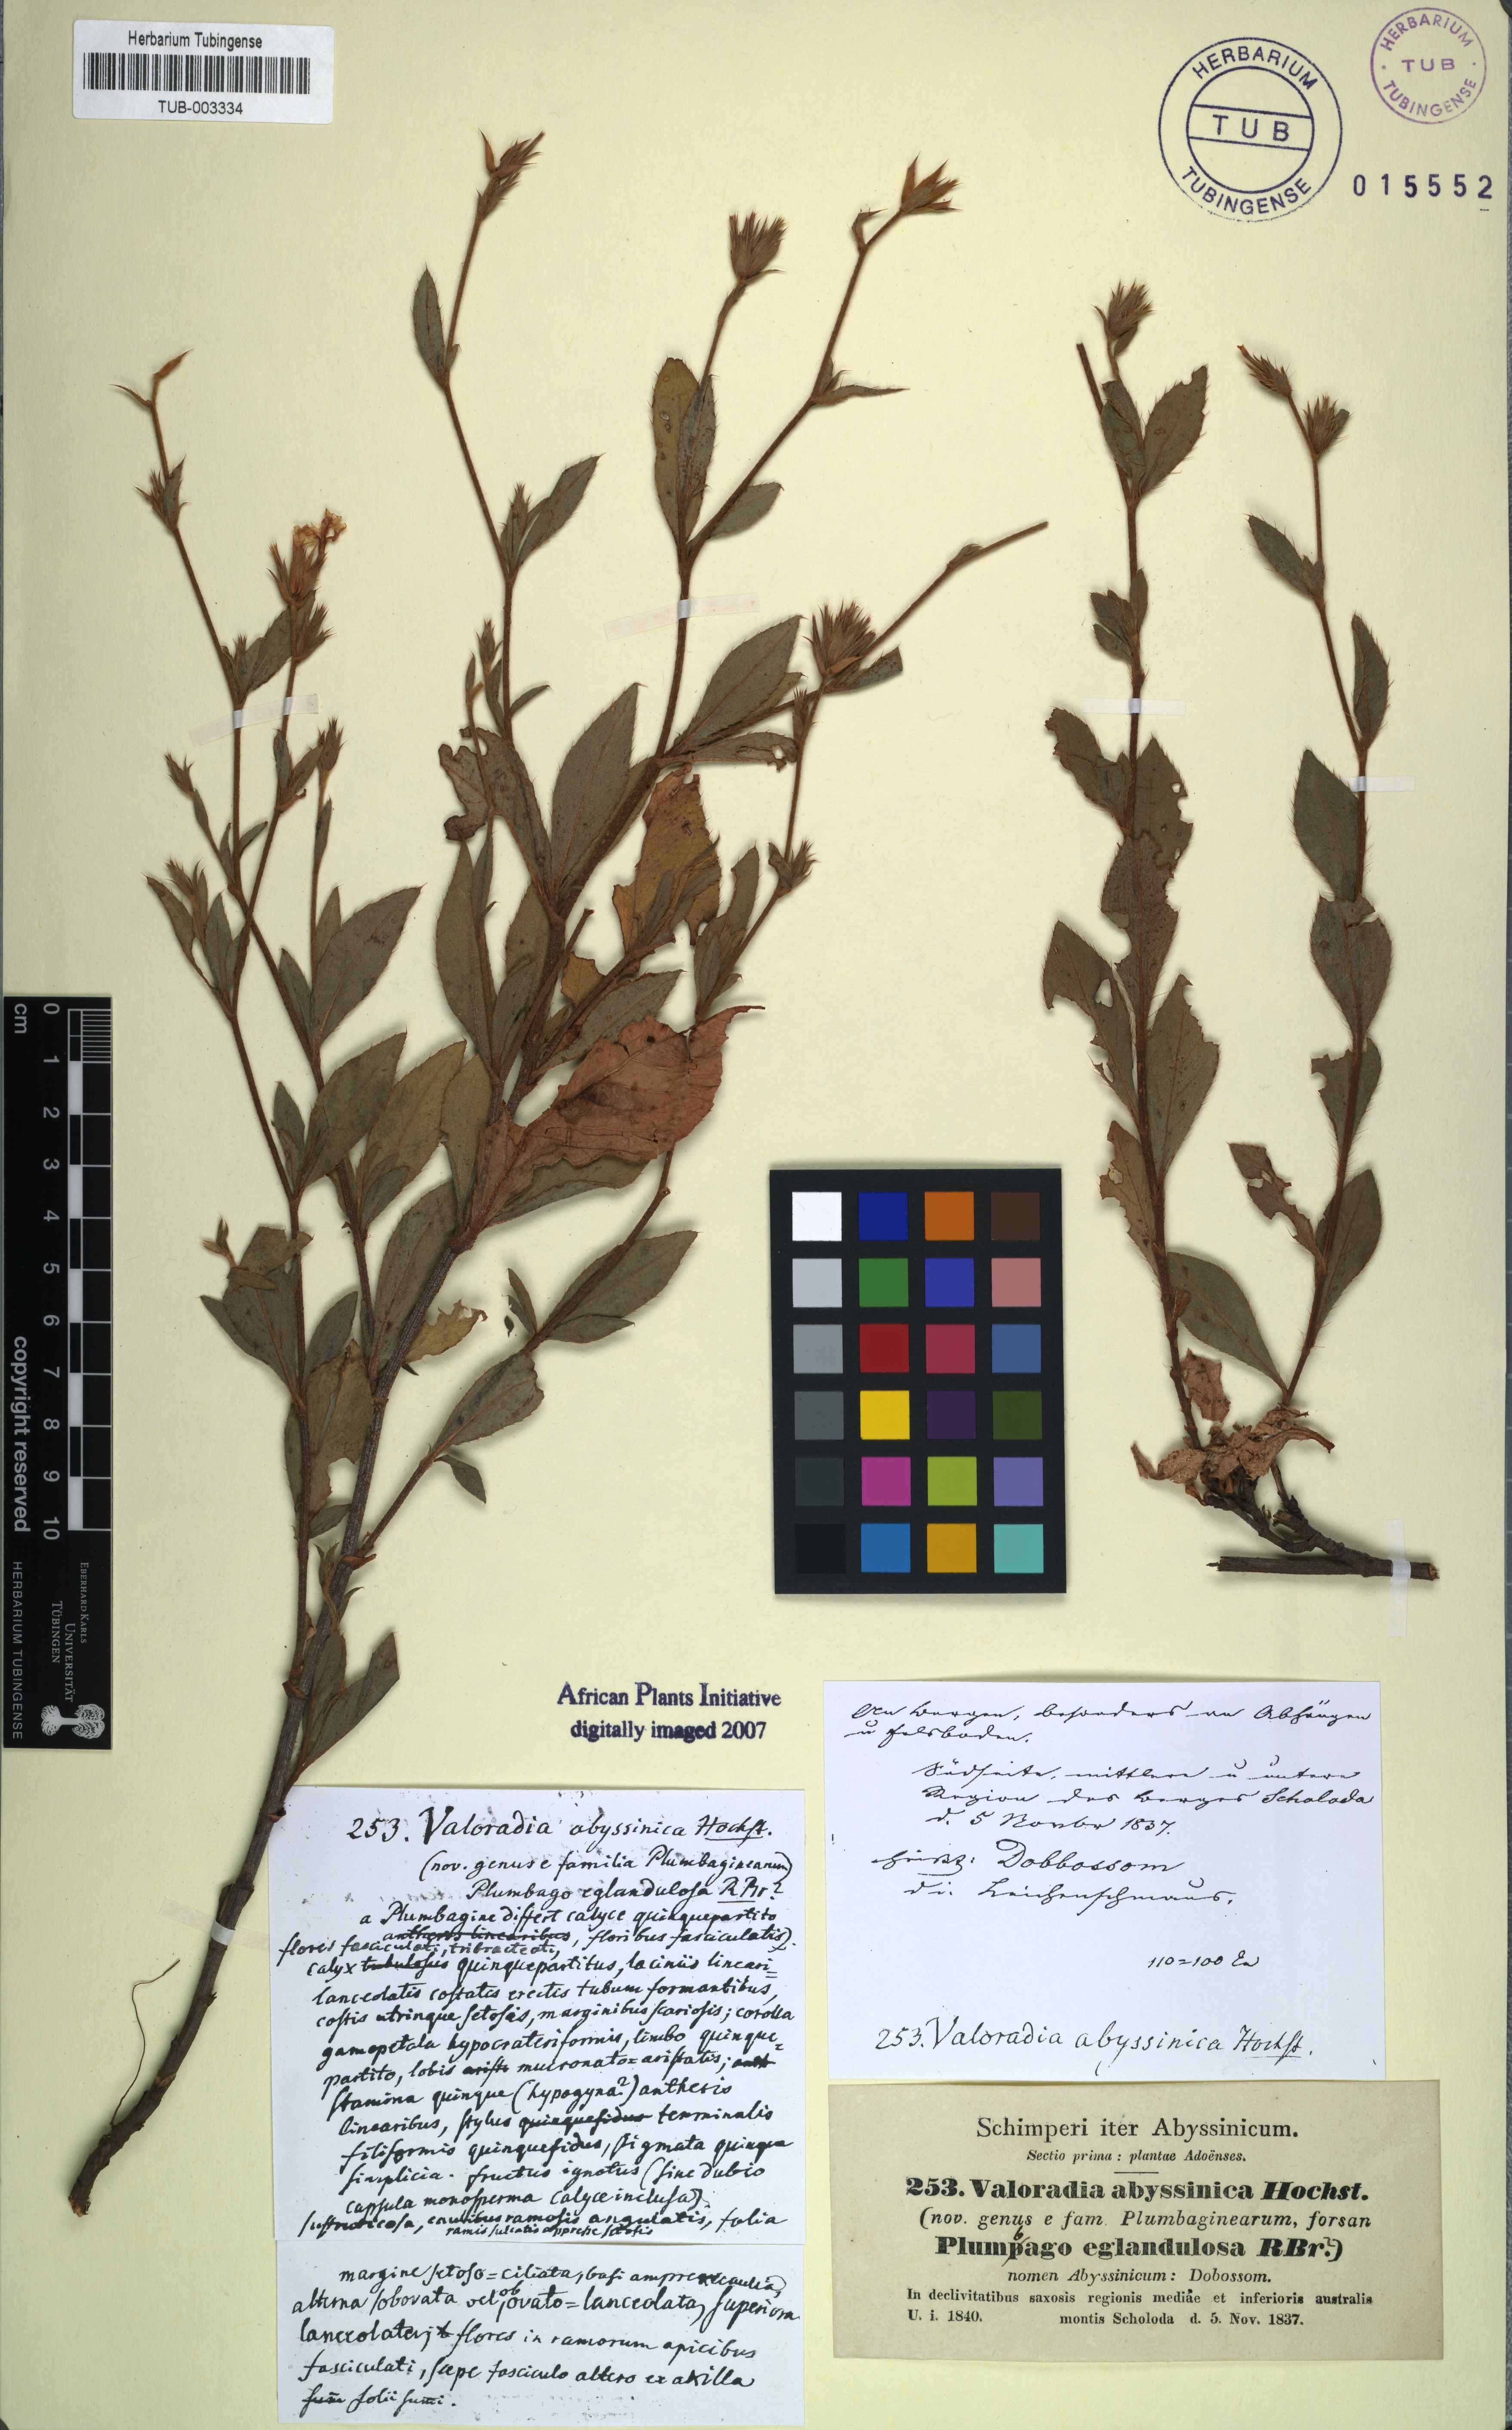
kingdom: Plantae
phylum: Tracheophyta
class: Magnoliopsida
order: Caryophyllales
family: Plumbaginaceae
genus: Ceratostigma
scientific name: Ceratostigma abyssinicum
